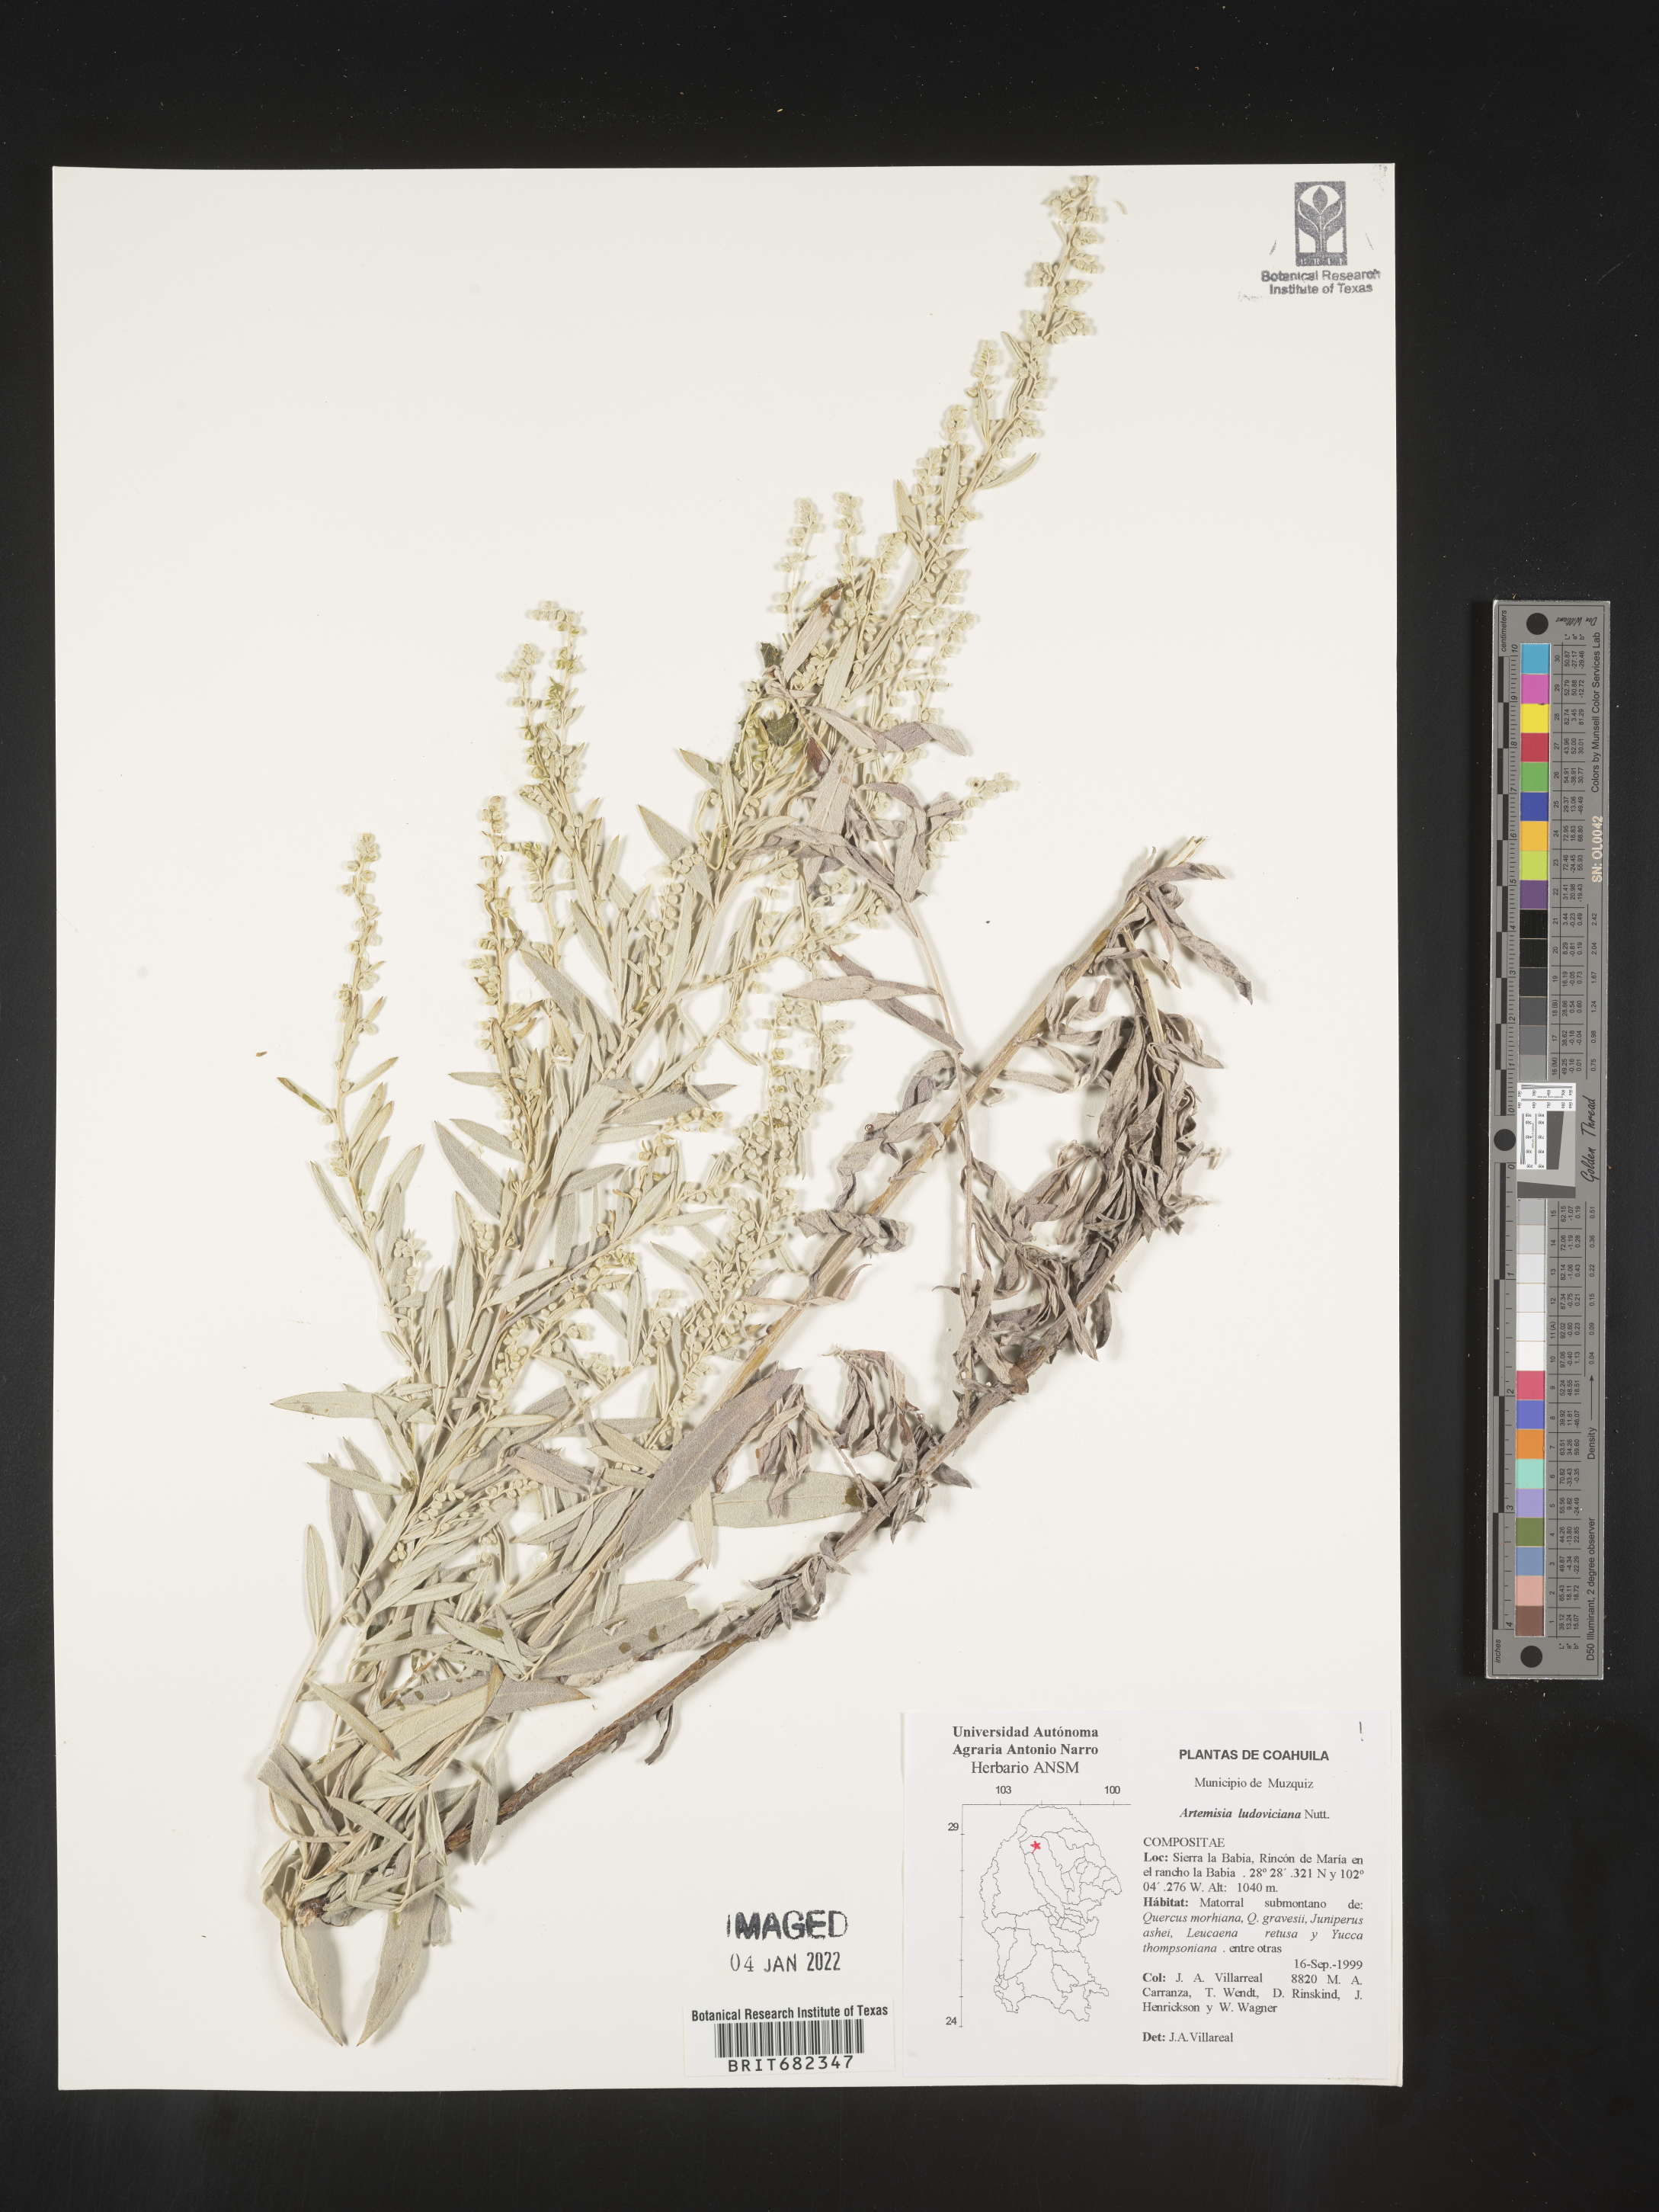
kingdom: Plantae
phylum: Tracheophyta
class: Magnoliopsida
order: Asterales
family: Asteraceae
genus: Artemisia
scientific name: Artemisia
